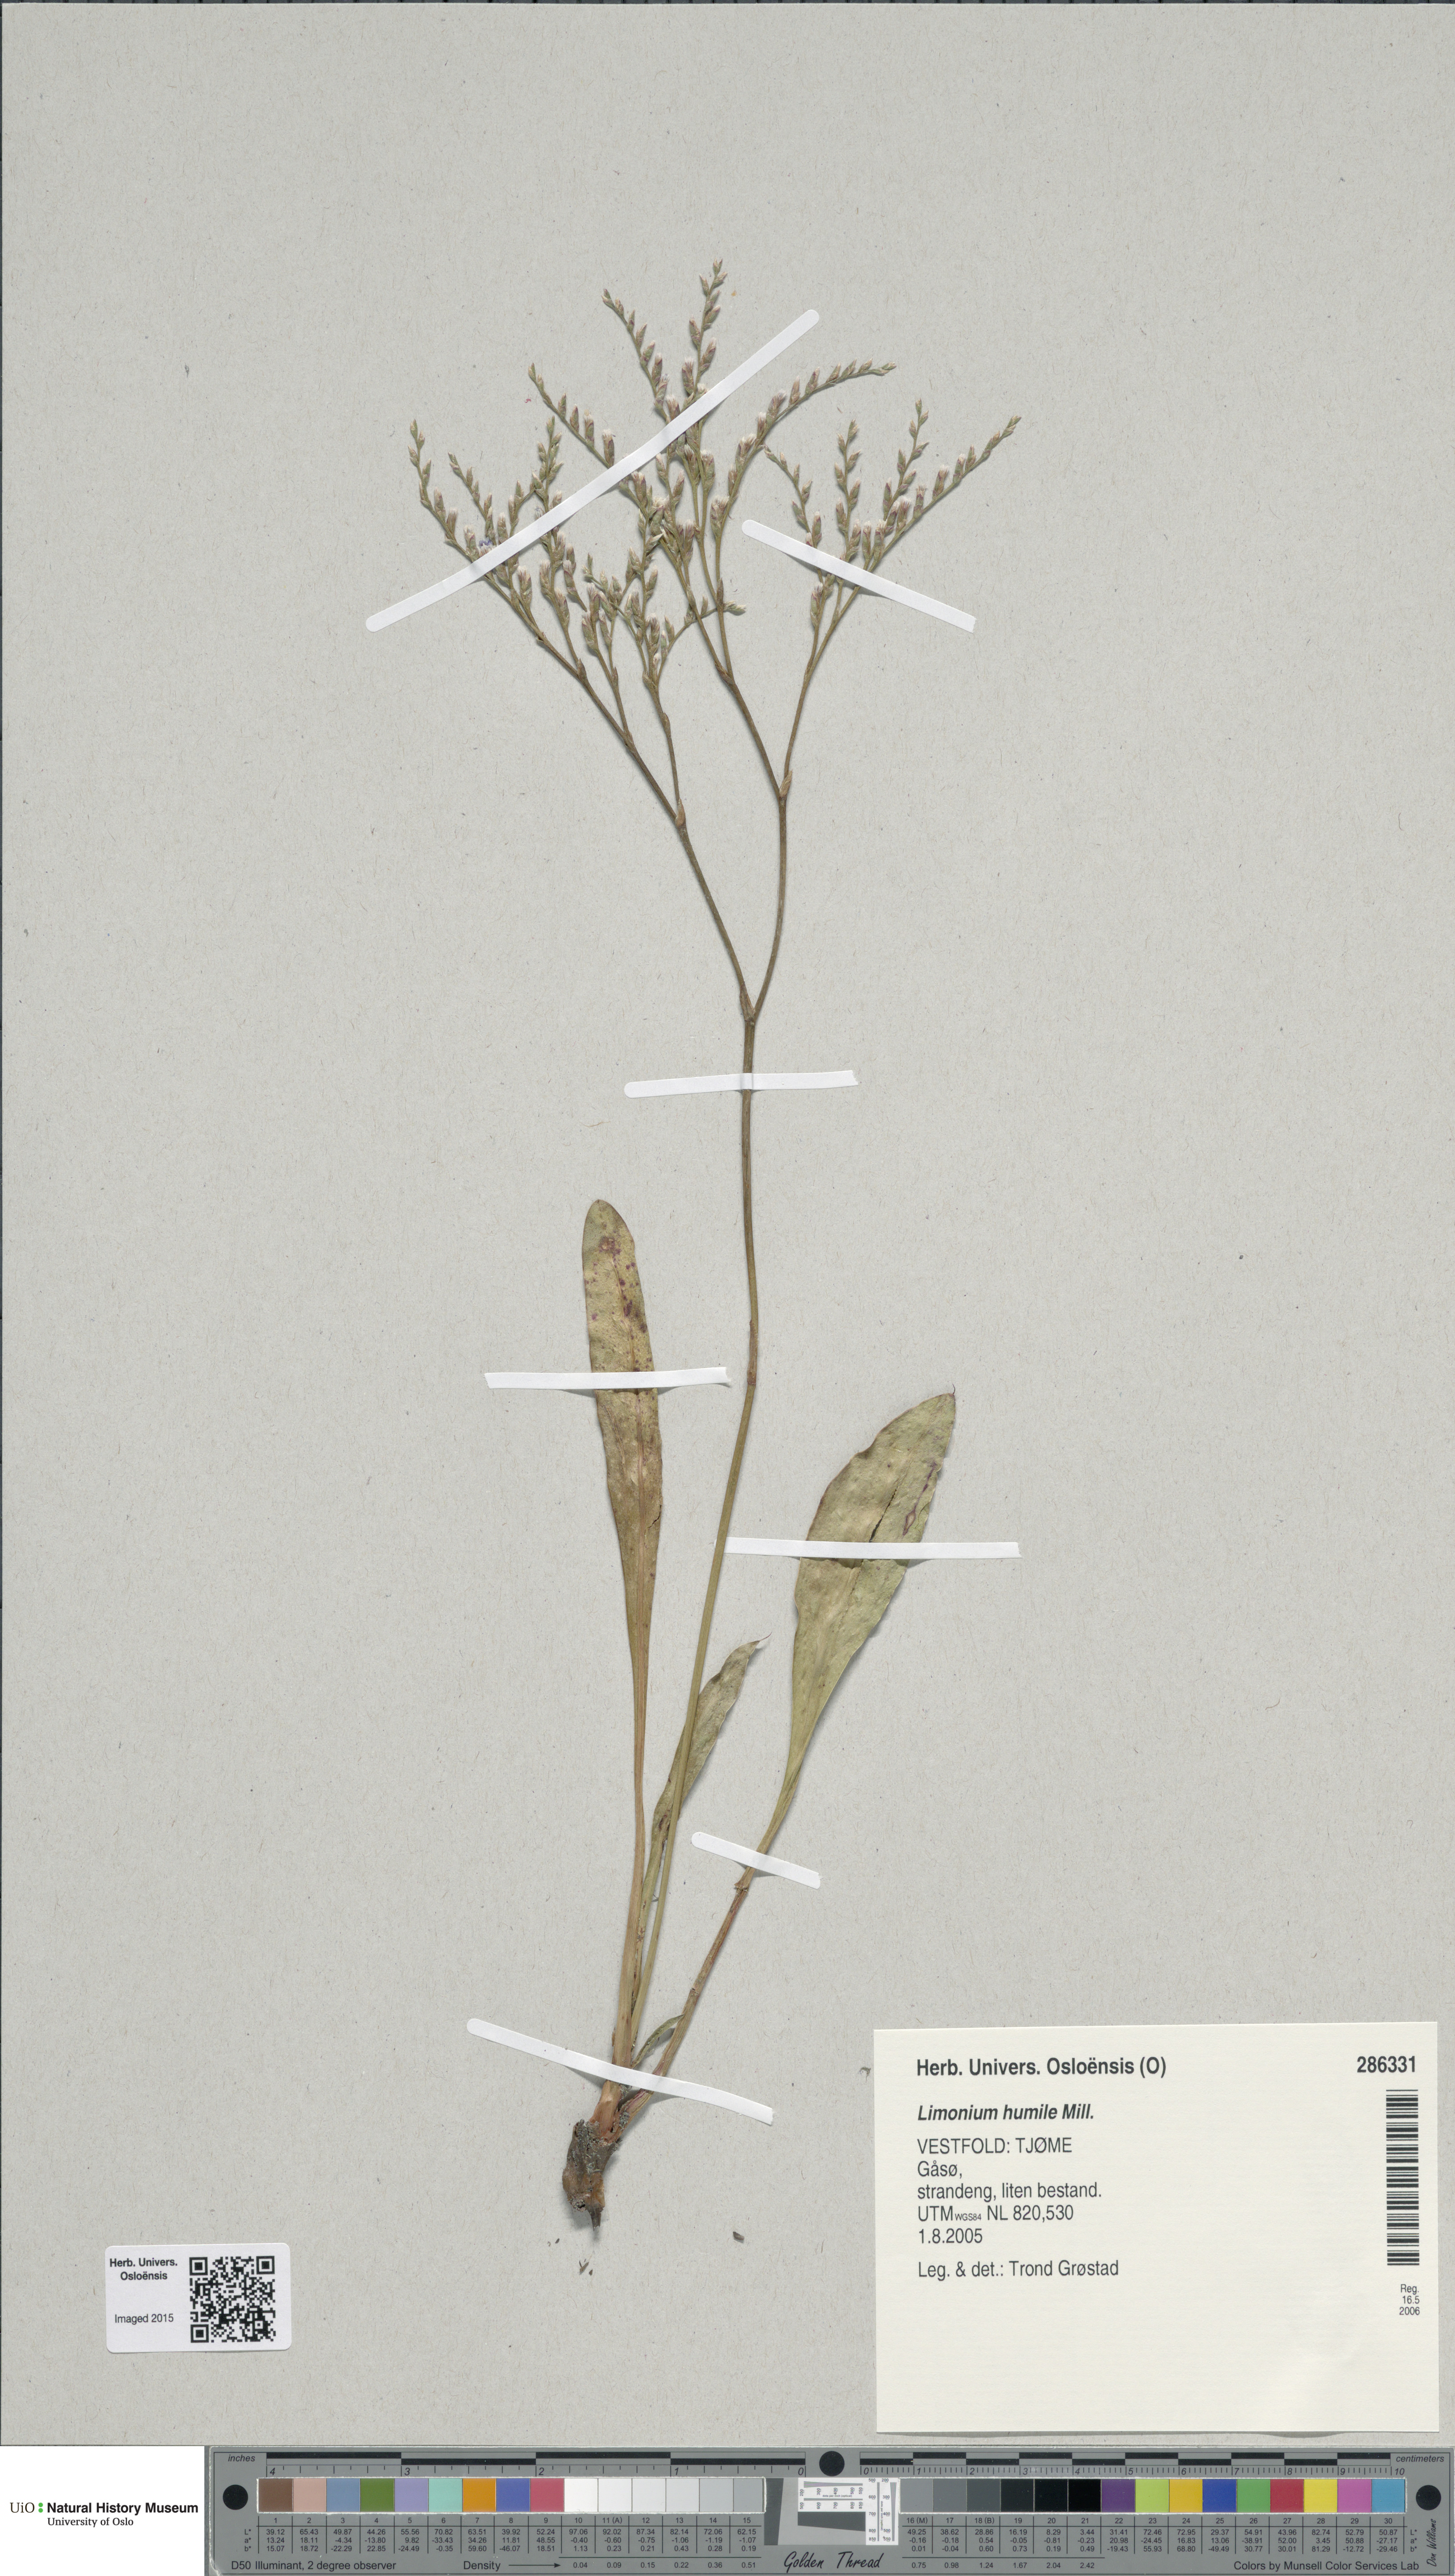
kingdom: Plantae
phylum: Tracheophyta
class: Magnoliopsida
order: Caryophyllales
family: Plumbaginaceae
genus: Limonium
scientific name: Limonium humile
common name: Lax-flowered sea-lavender
